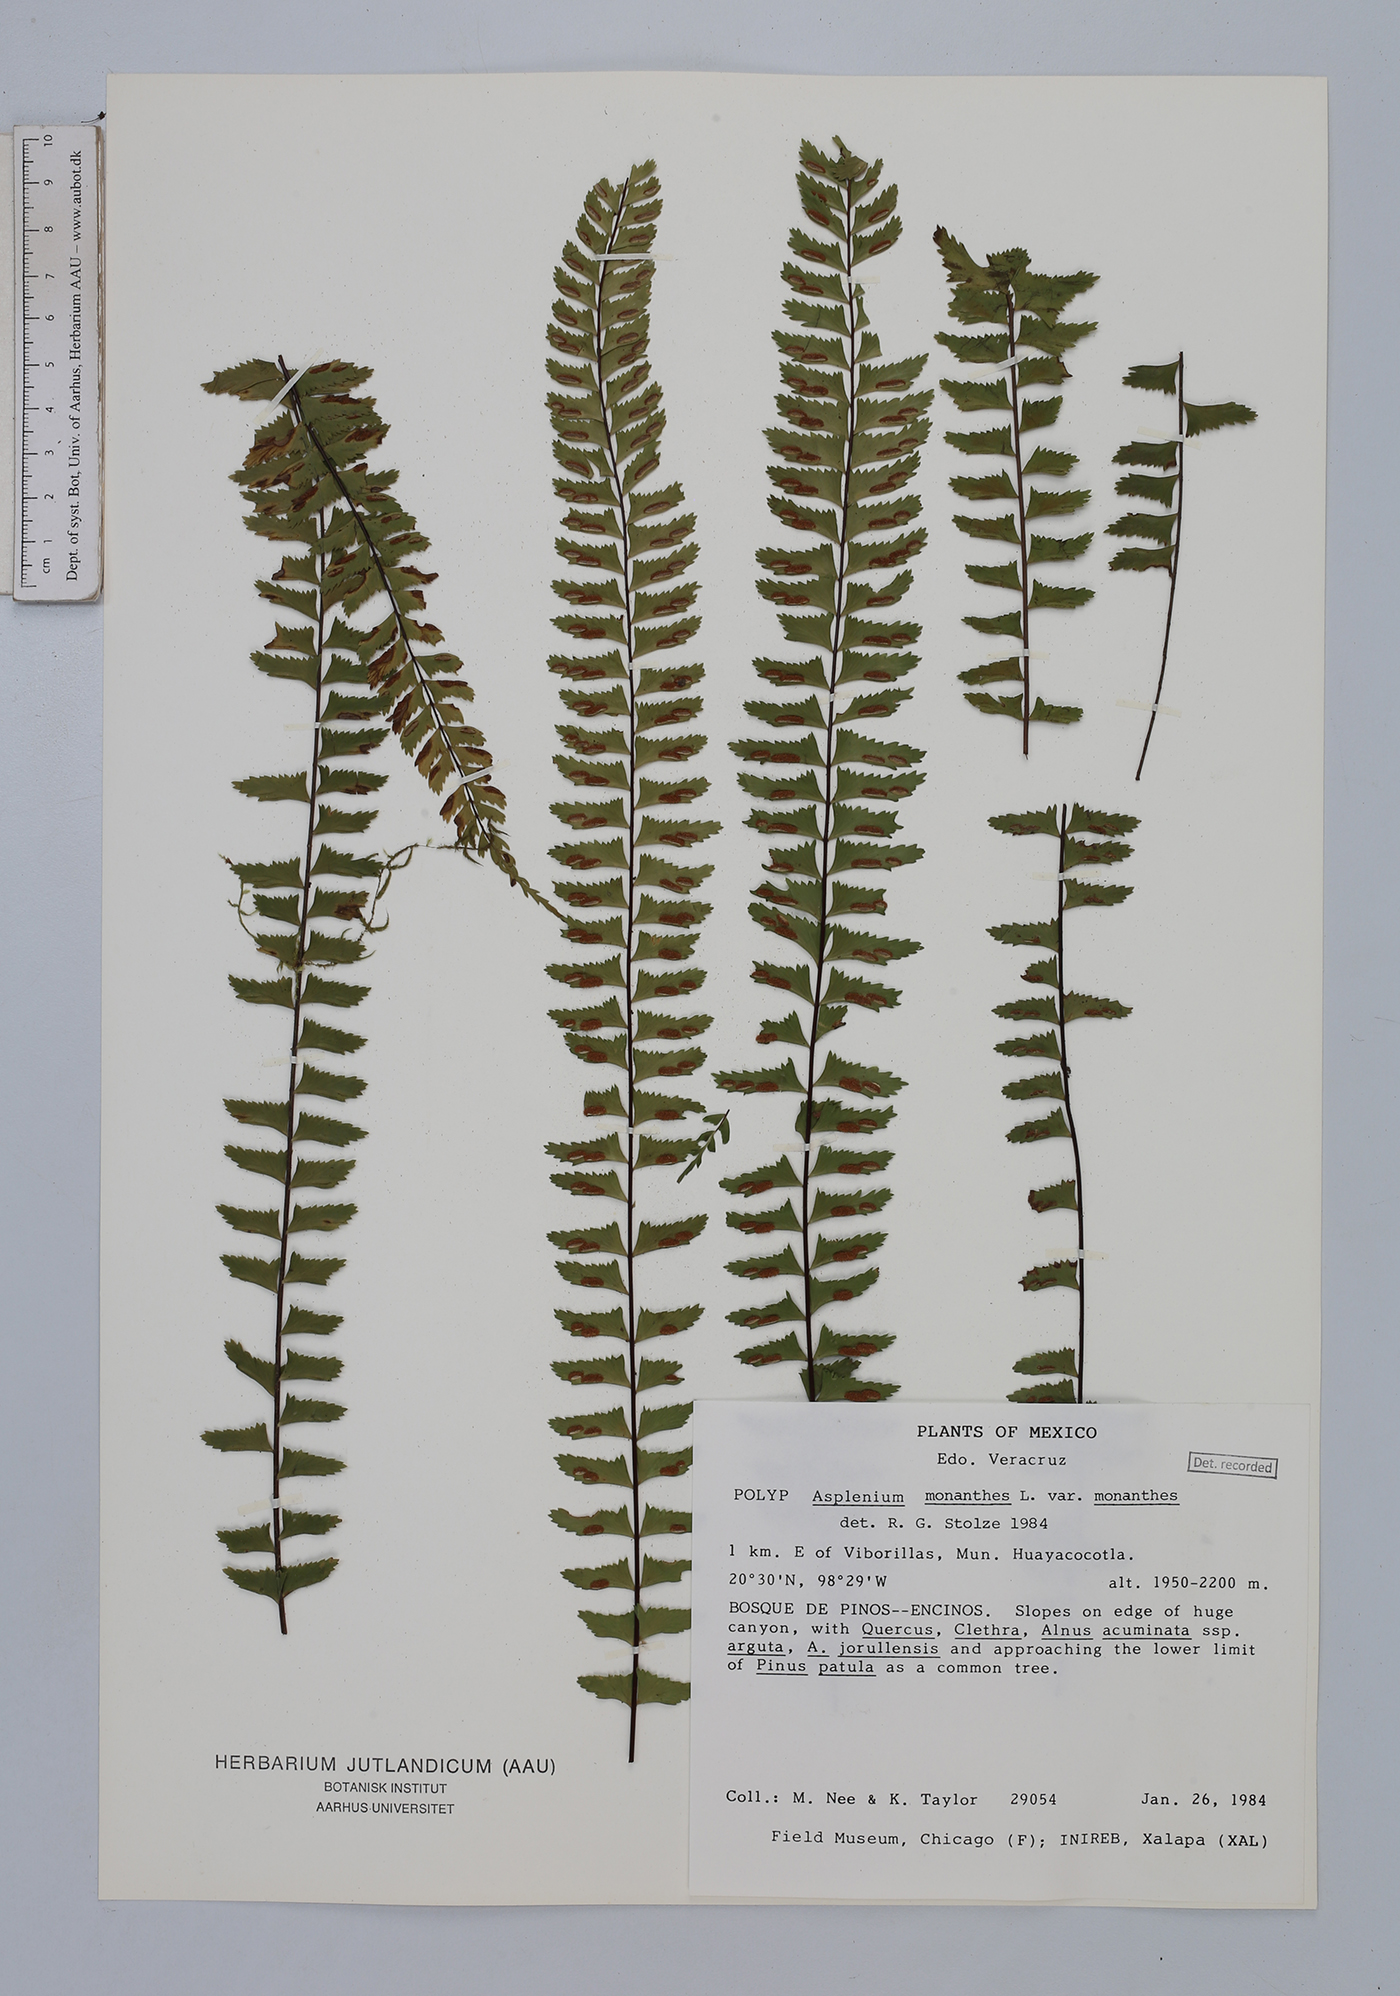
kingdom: Plantae
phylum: Tracheophyta
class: Polypodiopsida
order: Polypodiales
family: Aspleniaceae
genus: Asplenium
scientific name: Asplenium monanthes
